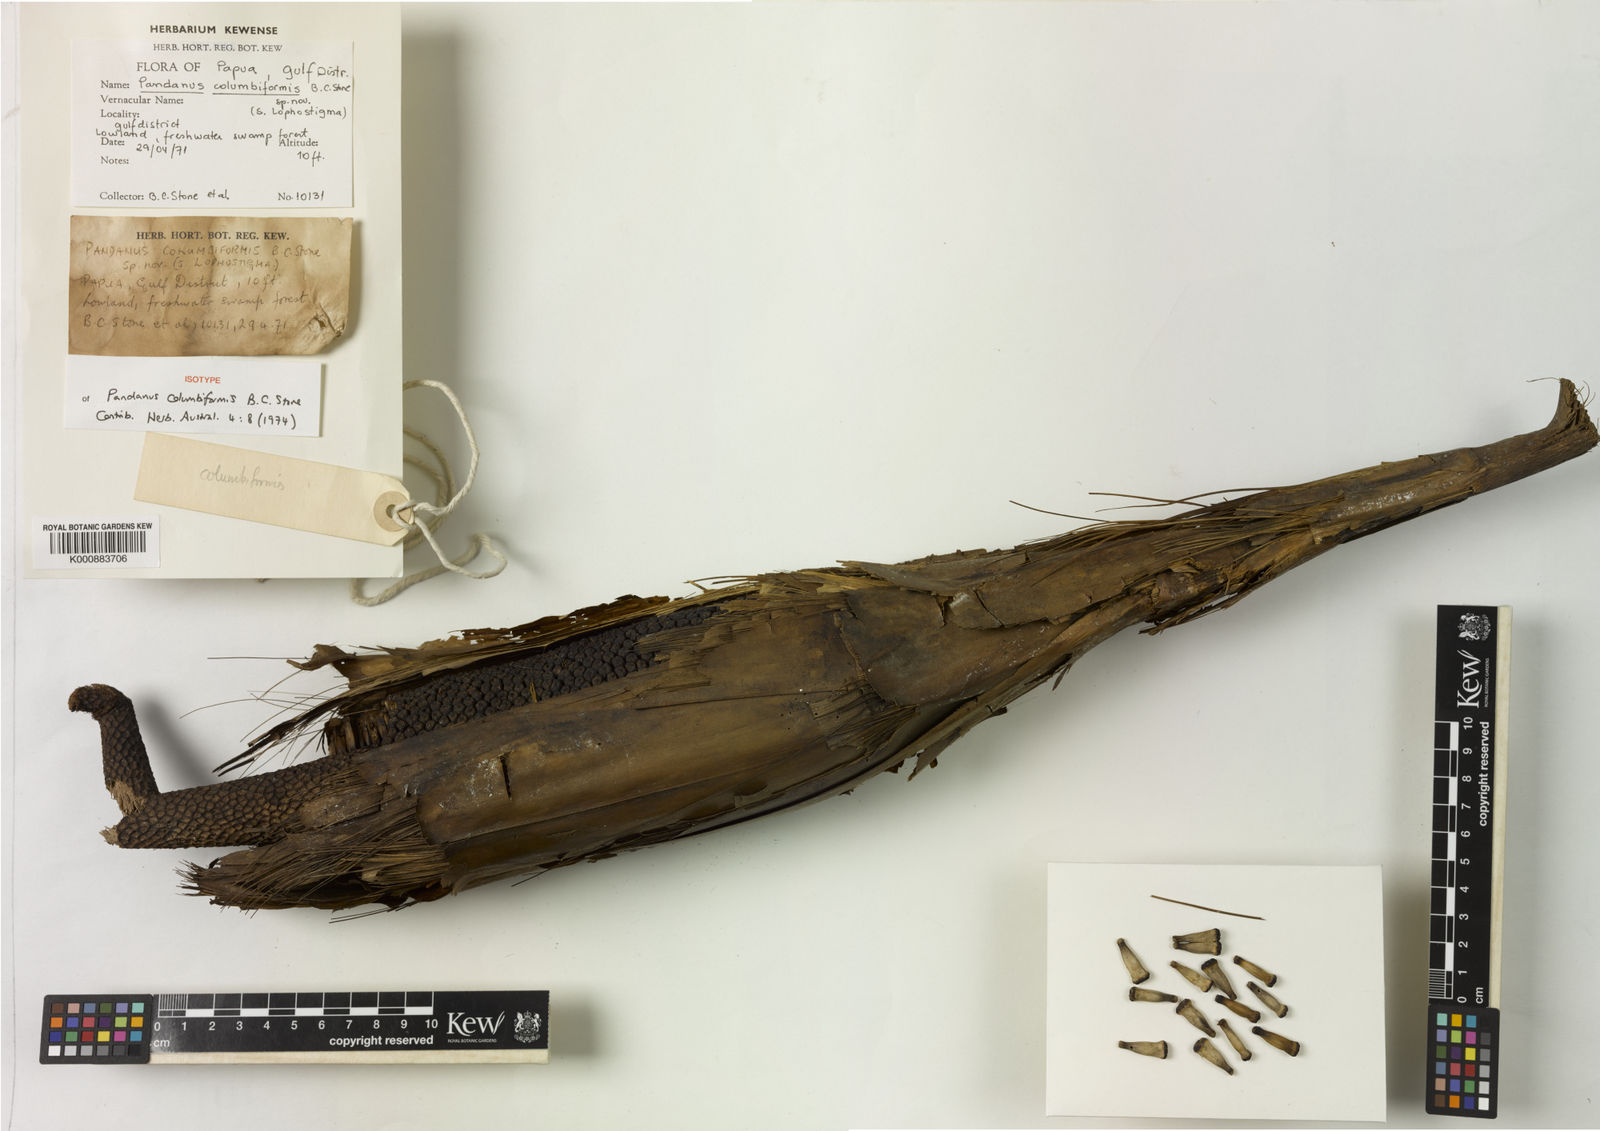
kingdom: Plantae
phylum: Tracheophyta
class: Liliopsida
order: Pandanales
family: Pandanaceae
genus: Pandanus
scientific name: Pandanus atropurpureus
